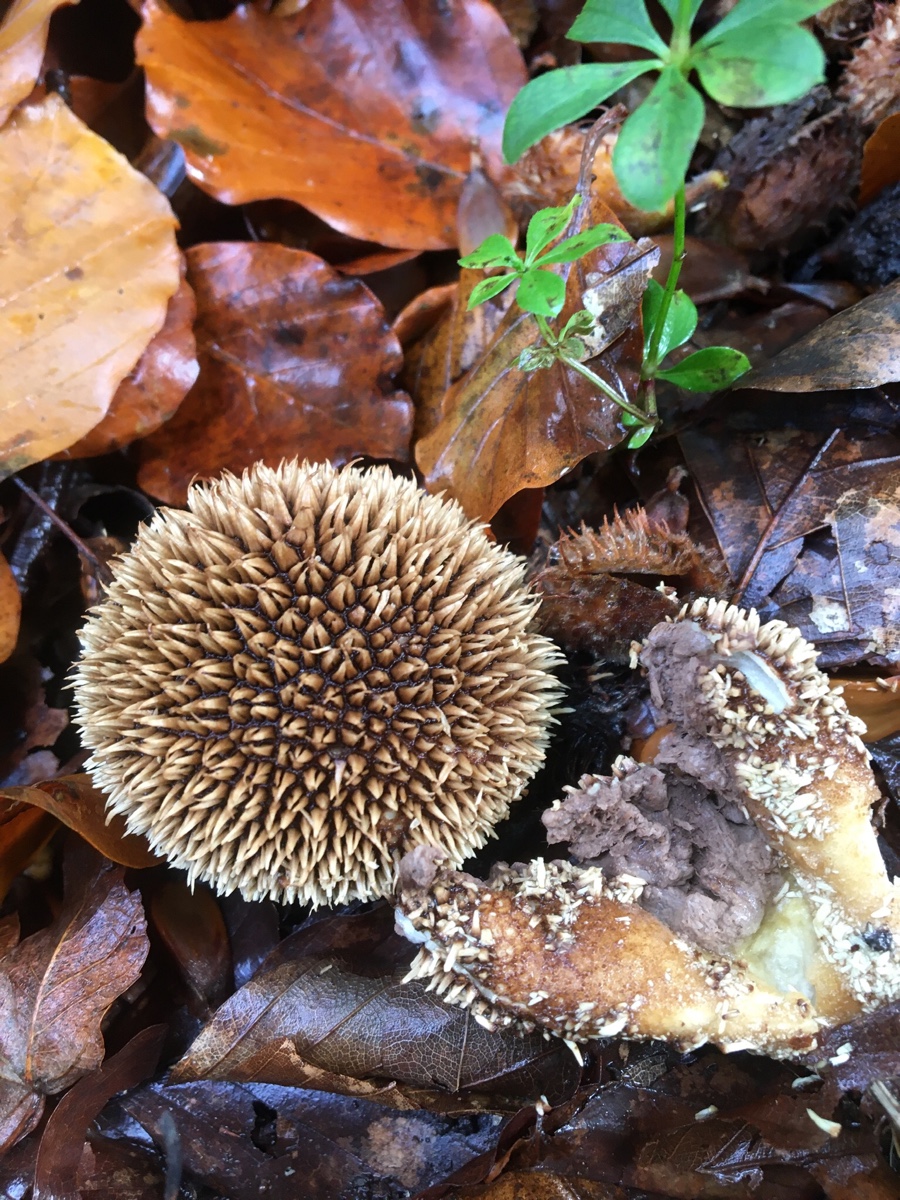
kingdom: Fungi
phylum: Basidiomycota
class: Agaricomycetes
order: Agaricales
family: Lycoperdaceae
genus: Lycoperdon
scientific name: Lycoperdon echinatum
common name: pindsvine-støvbold
